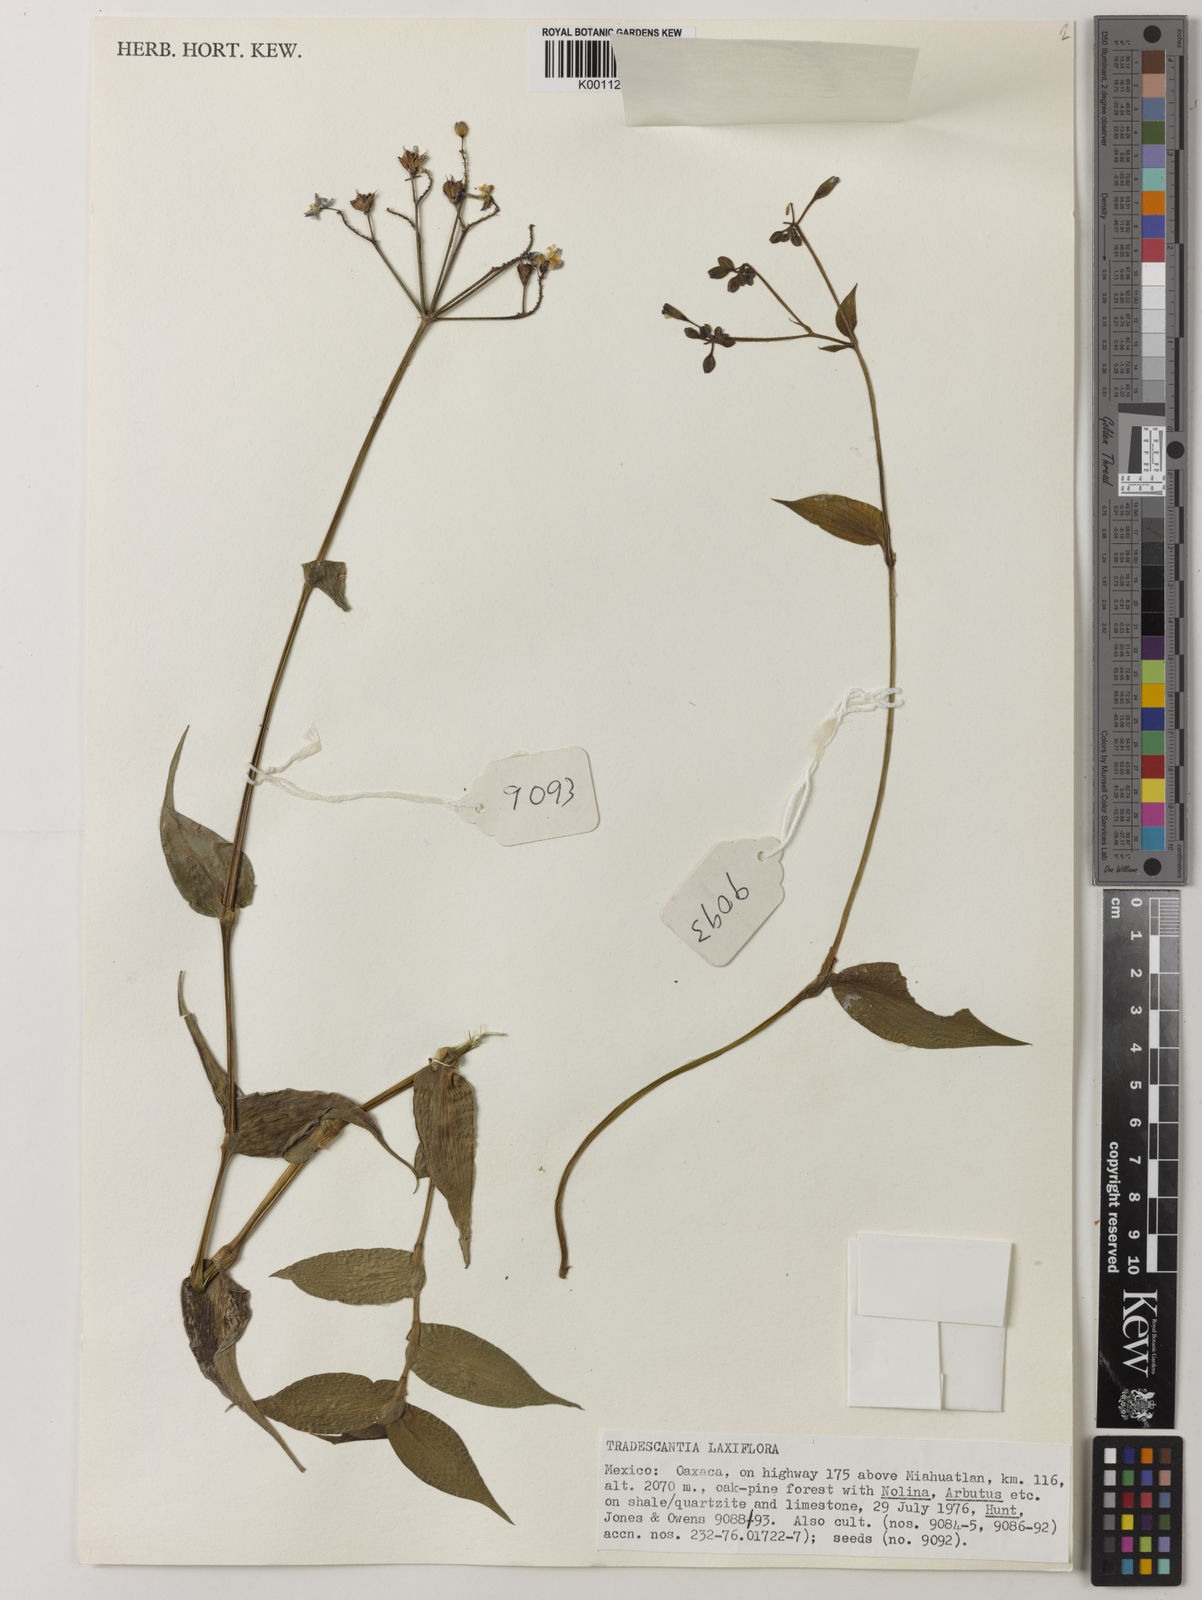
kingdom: Plantae
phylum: Tracheophyta
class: Liliopsida
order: Commelinales
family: Commelinaceae
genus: Thyrsanthemum
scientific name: Thyrsanthemum laxiflorum
